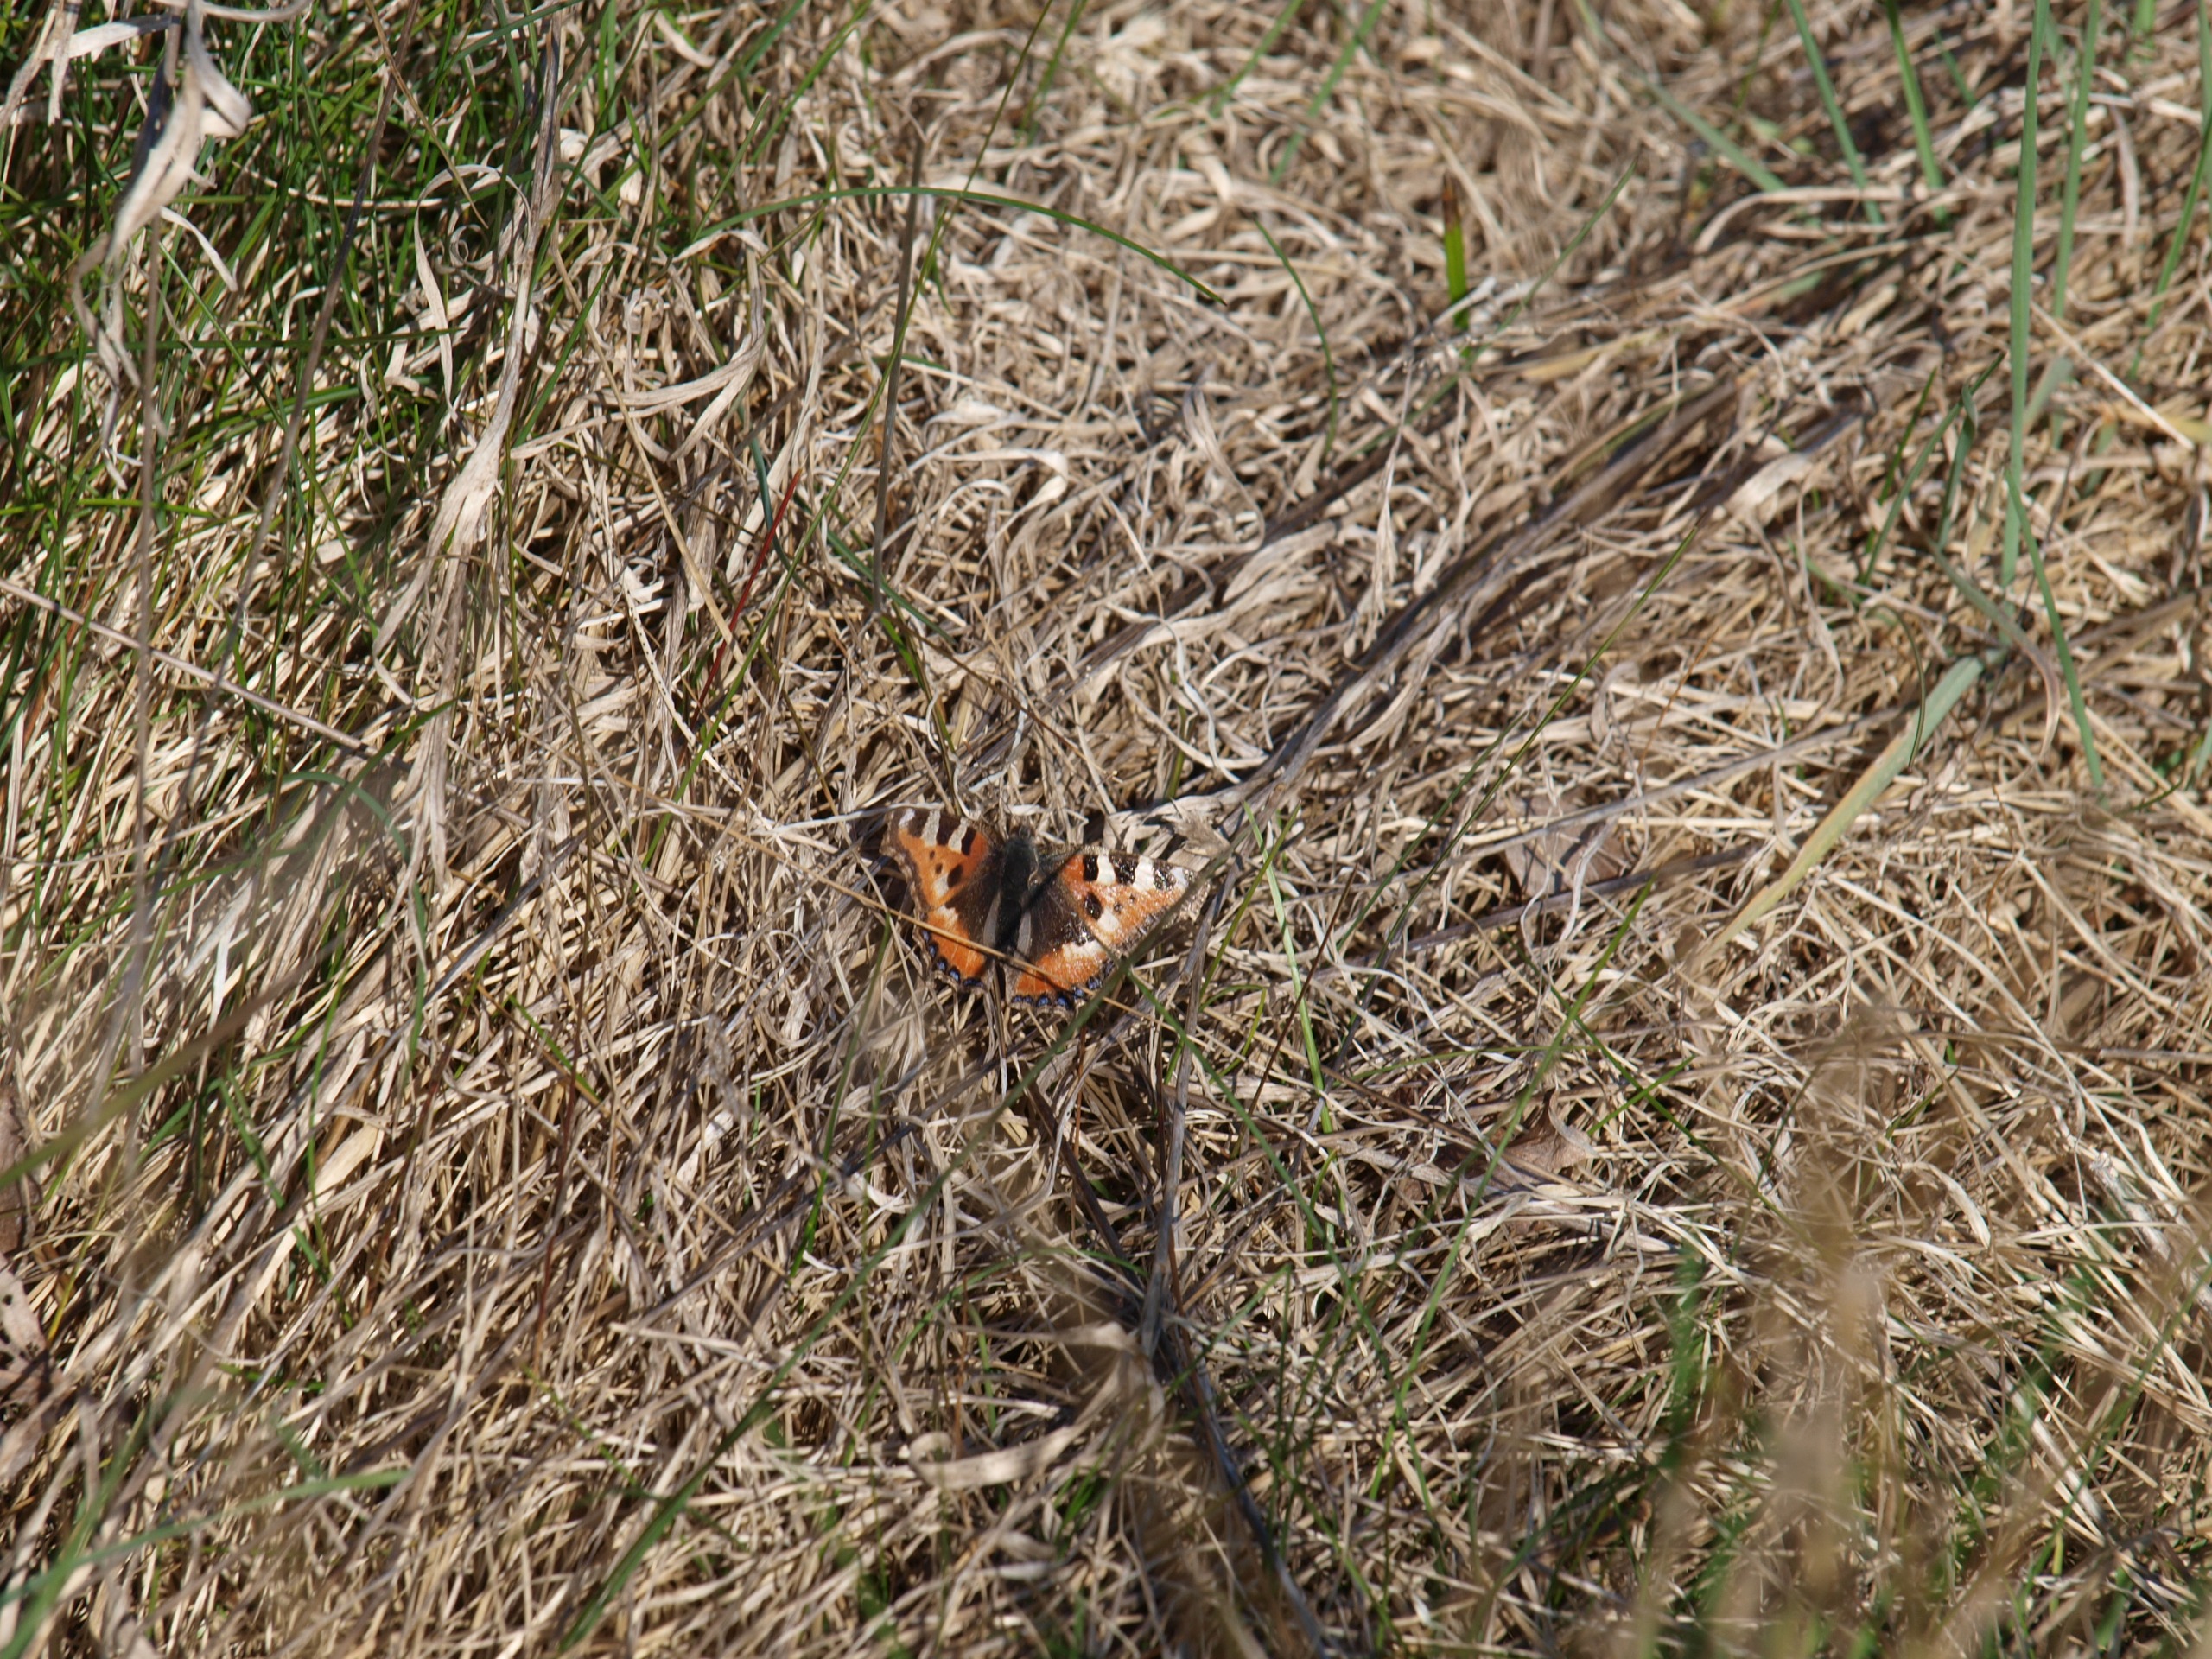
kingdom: Animalia
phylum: Arthropoda
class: Insecta
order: Lepidoptera
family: Nymphalidae
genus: Aglais
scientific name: Aglais urticae
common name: Nældens takvinge
